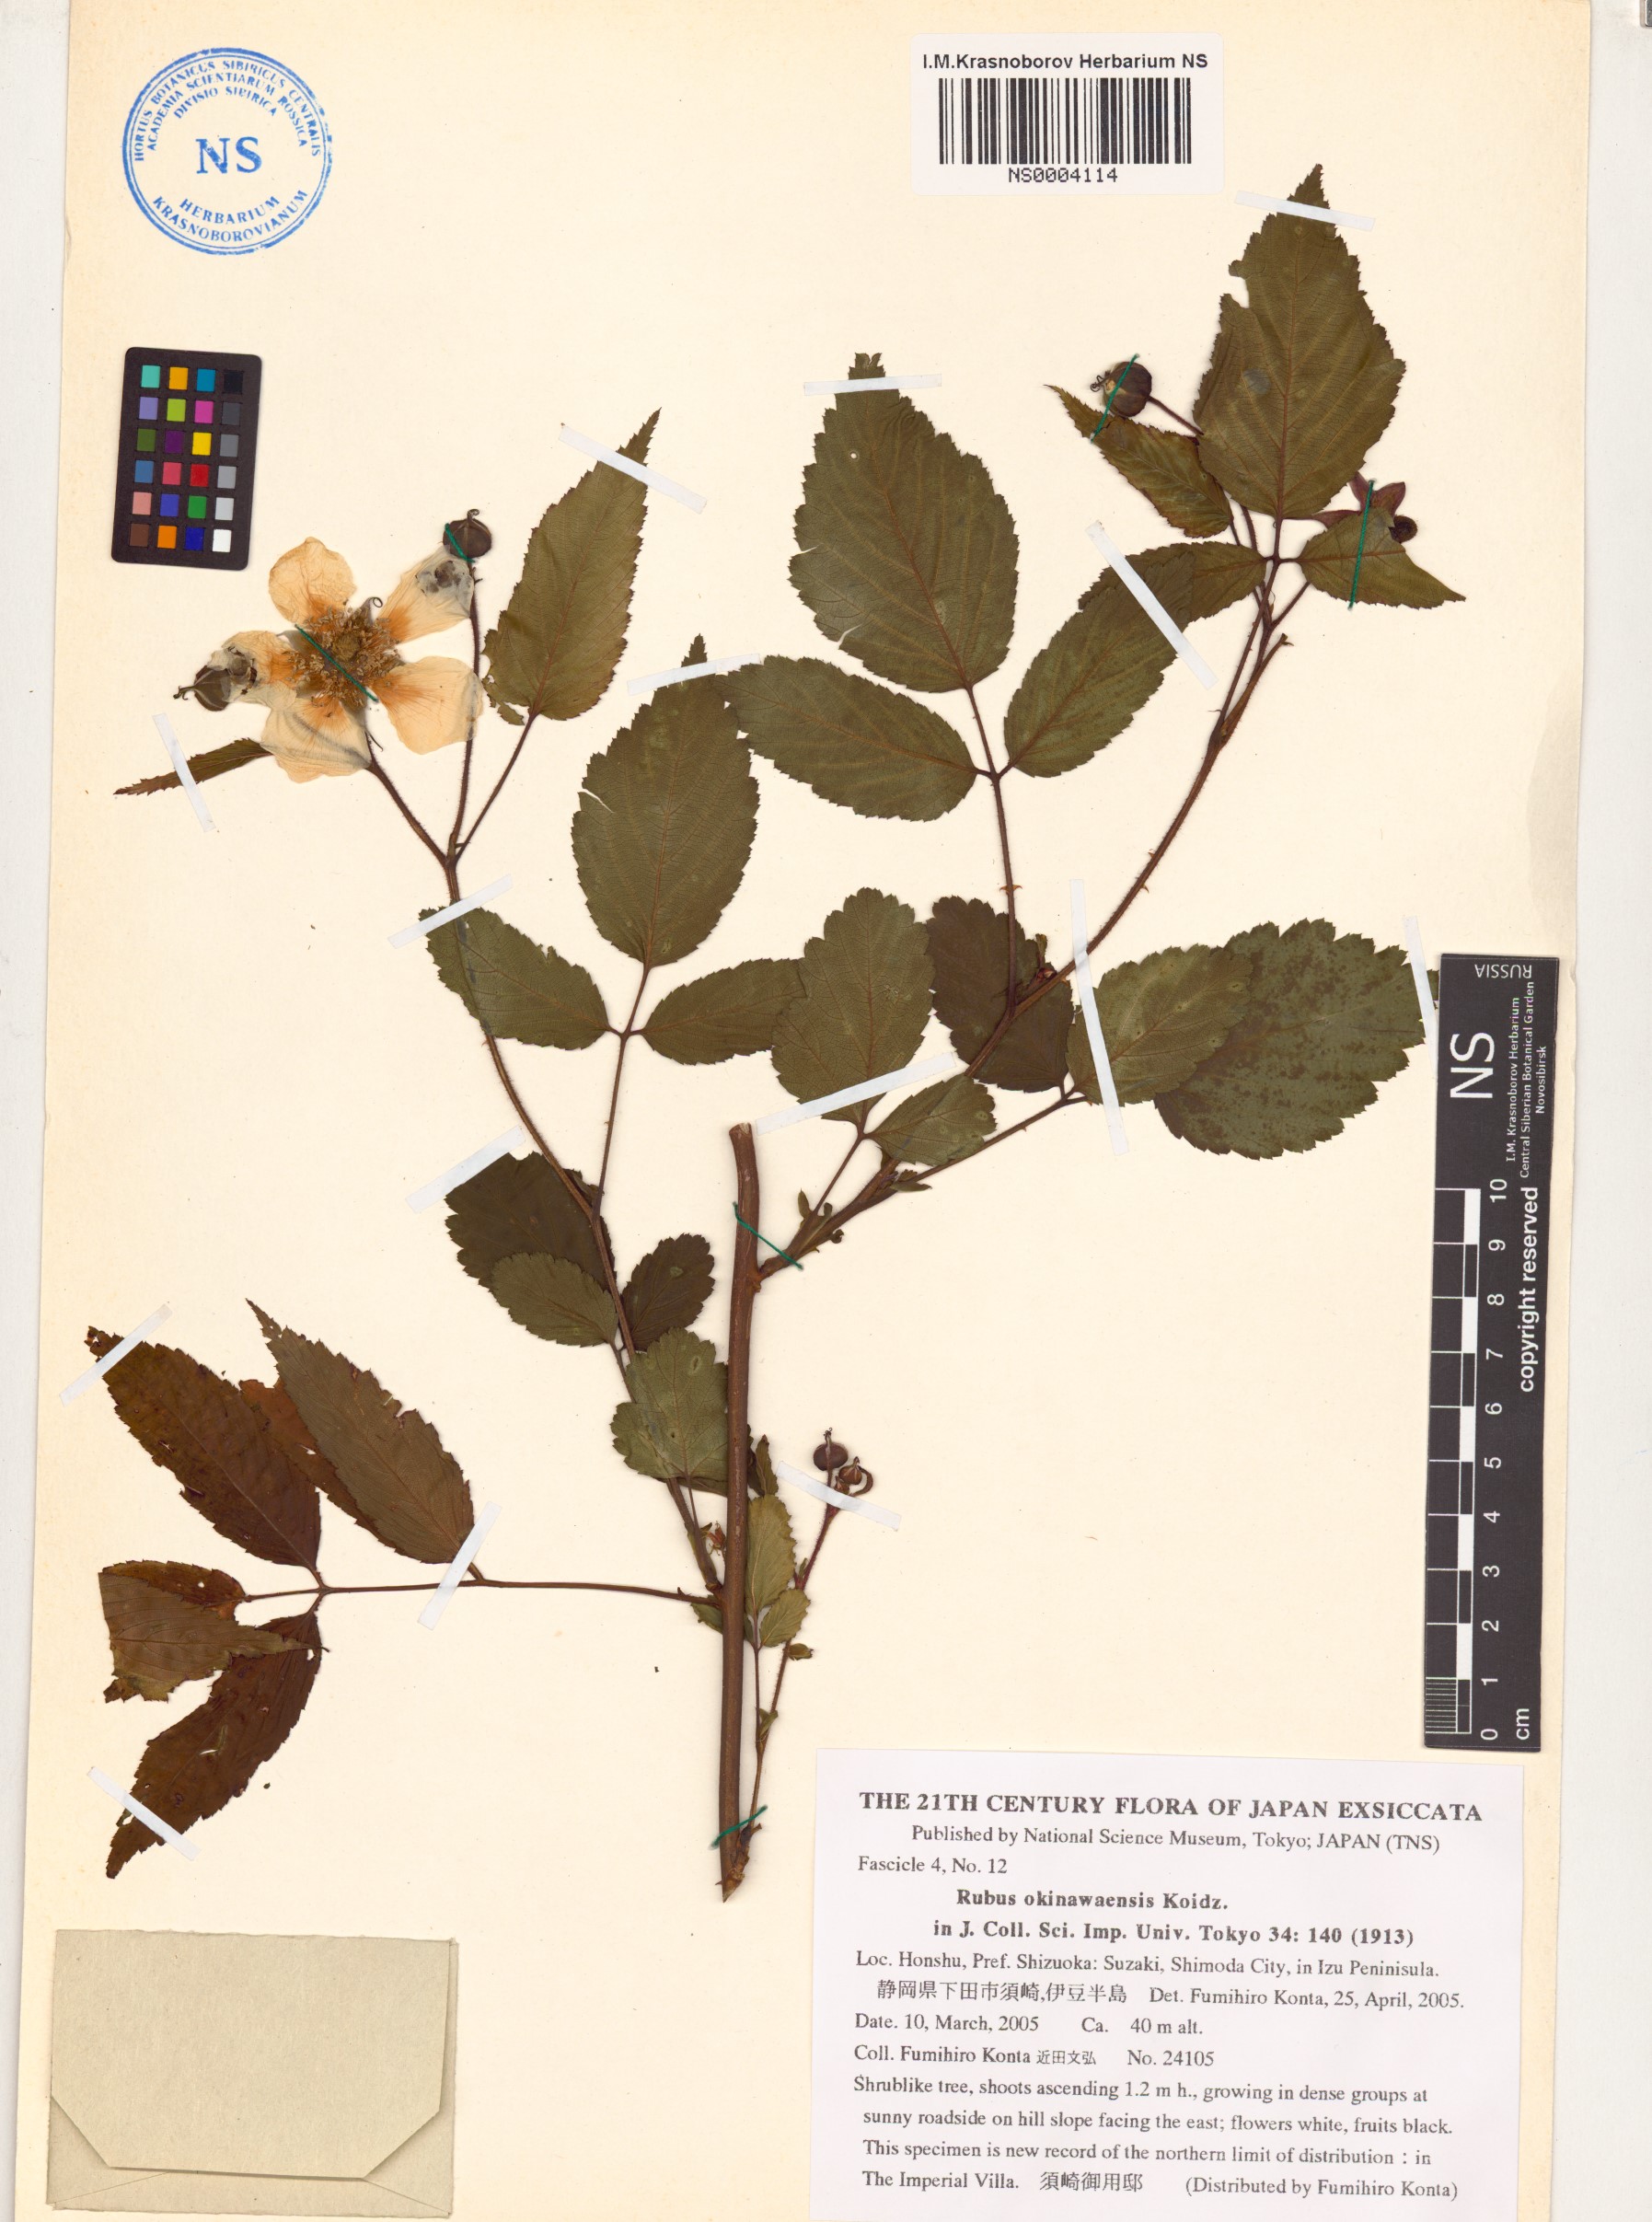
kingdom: Plantae
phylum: Tracheophyta
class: Magnoliopsida
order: Rosales
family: Rosaceae
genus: Rubus
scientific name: Rubus croceacanthus
